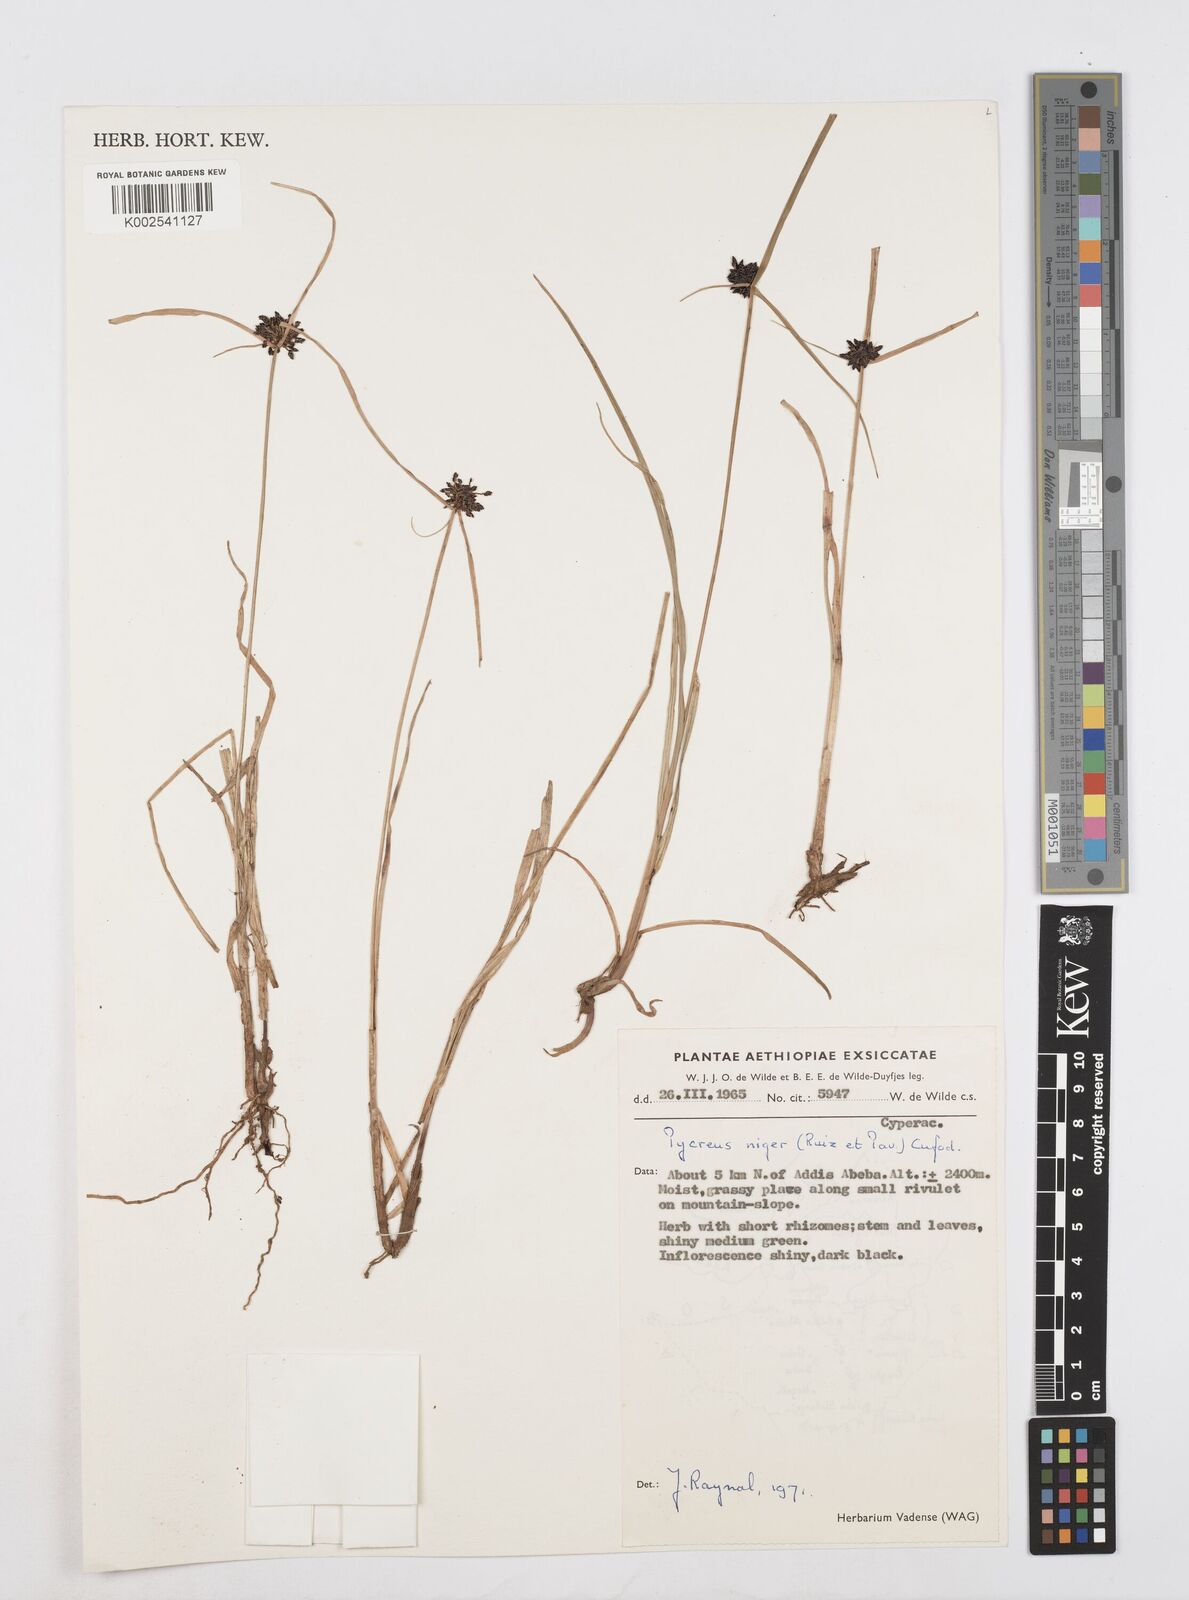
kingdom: Plantae
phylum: Tracheophyta
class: Liliopsida
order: Poales
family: Cyperaceae
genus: Cyperus
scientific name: Cyperus elegantulus
